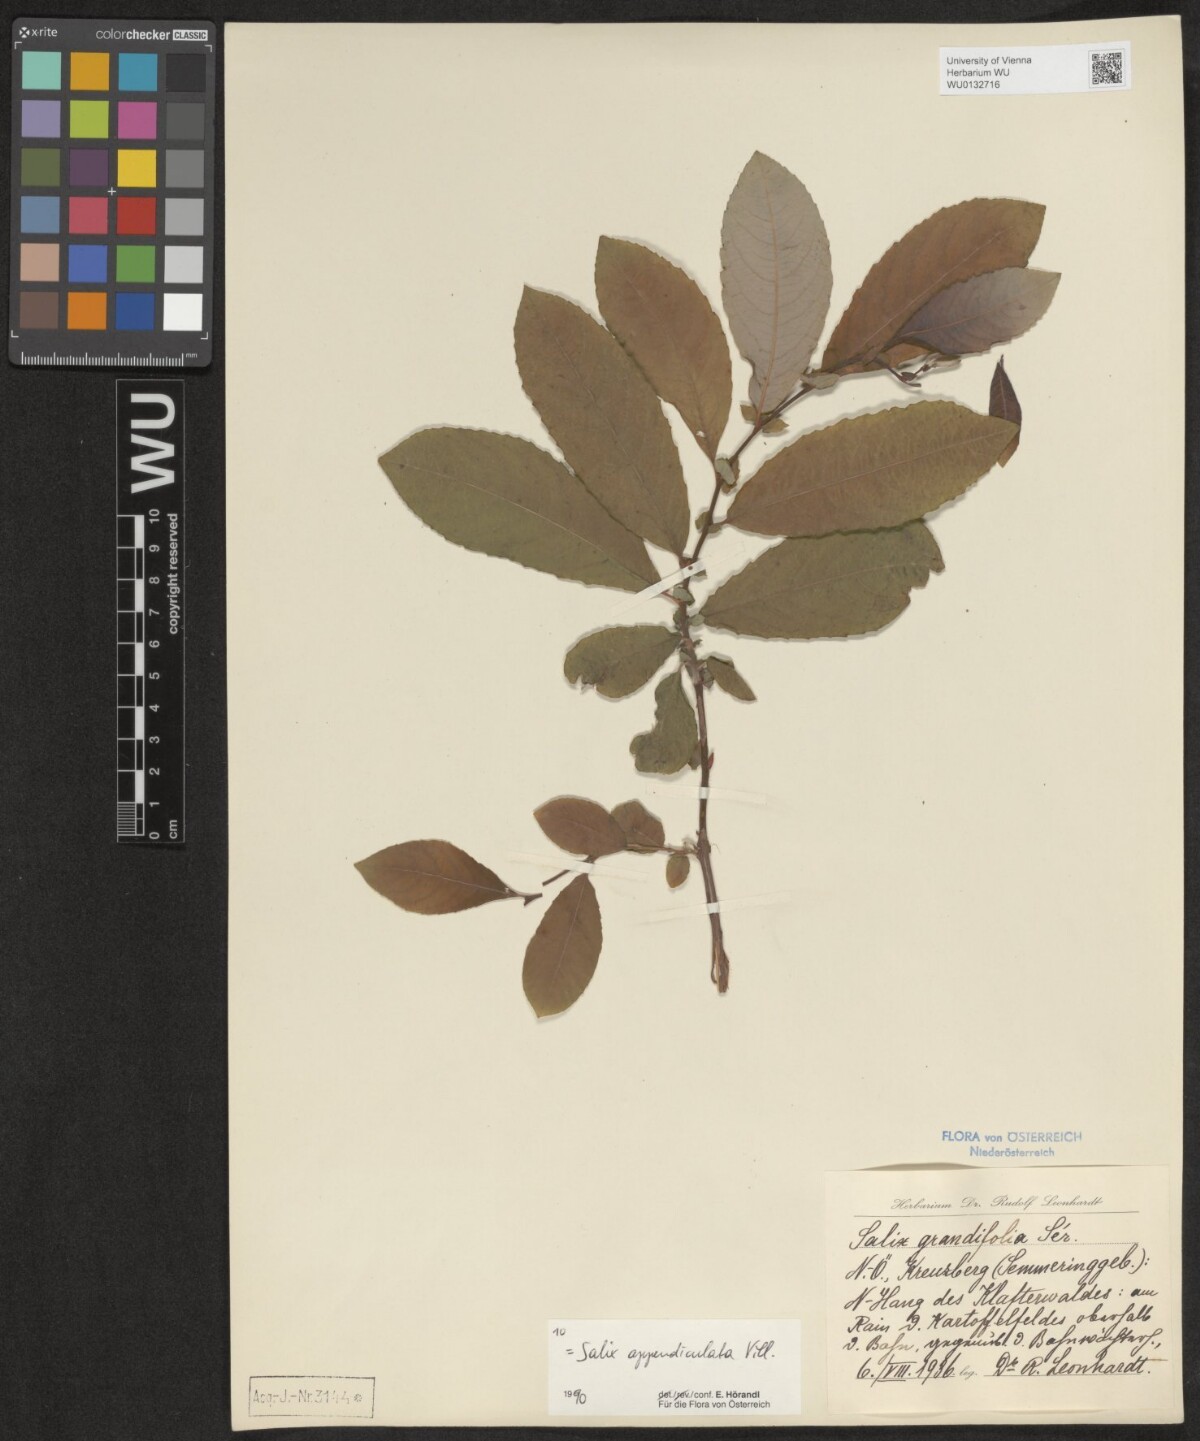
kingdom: Plantae
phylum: Tracheophyta
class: Magnoliopsida
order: Malpighiales
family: Salicaceae
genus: Salix
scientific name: Salix appendiculata
